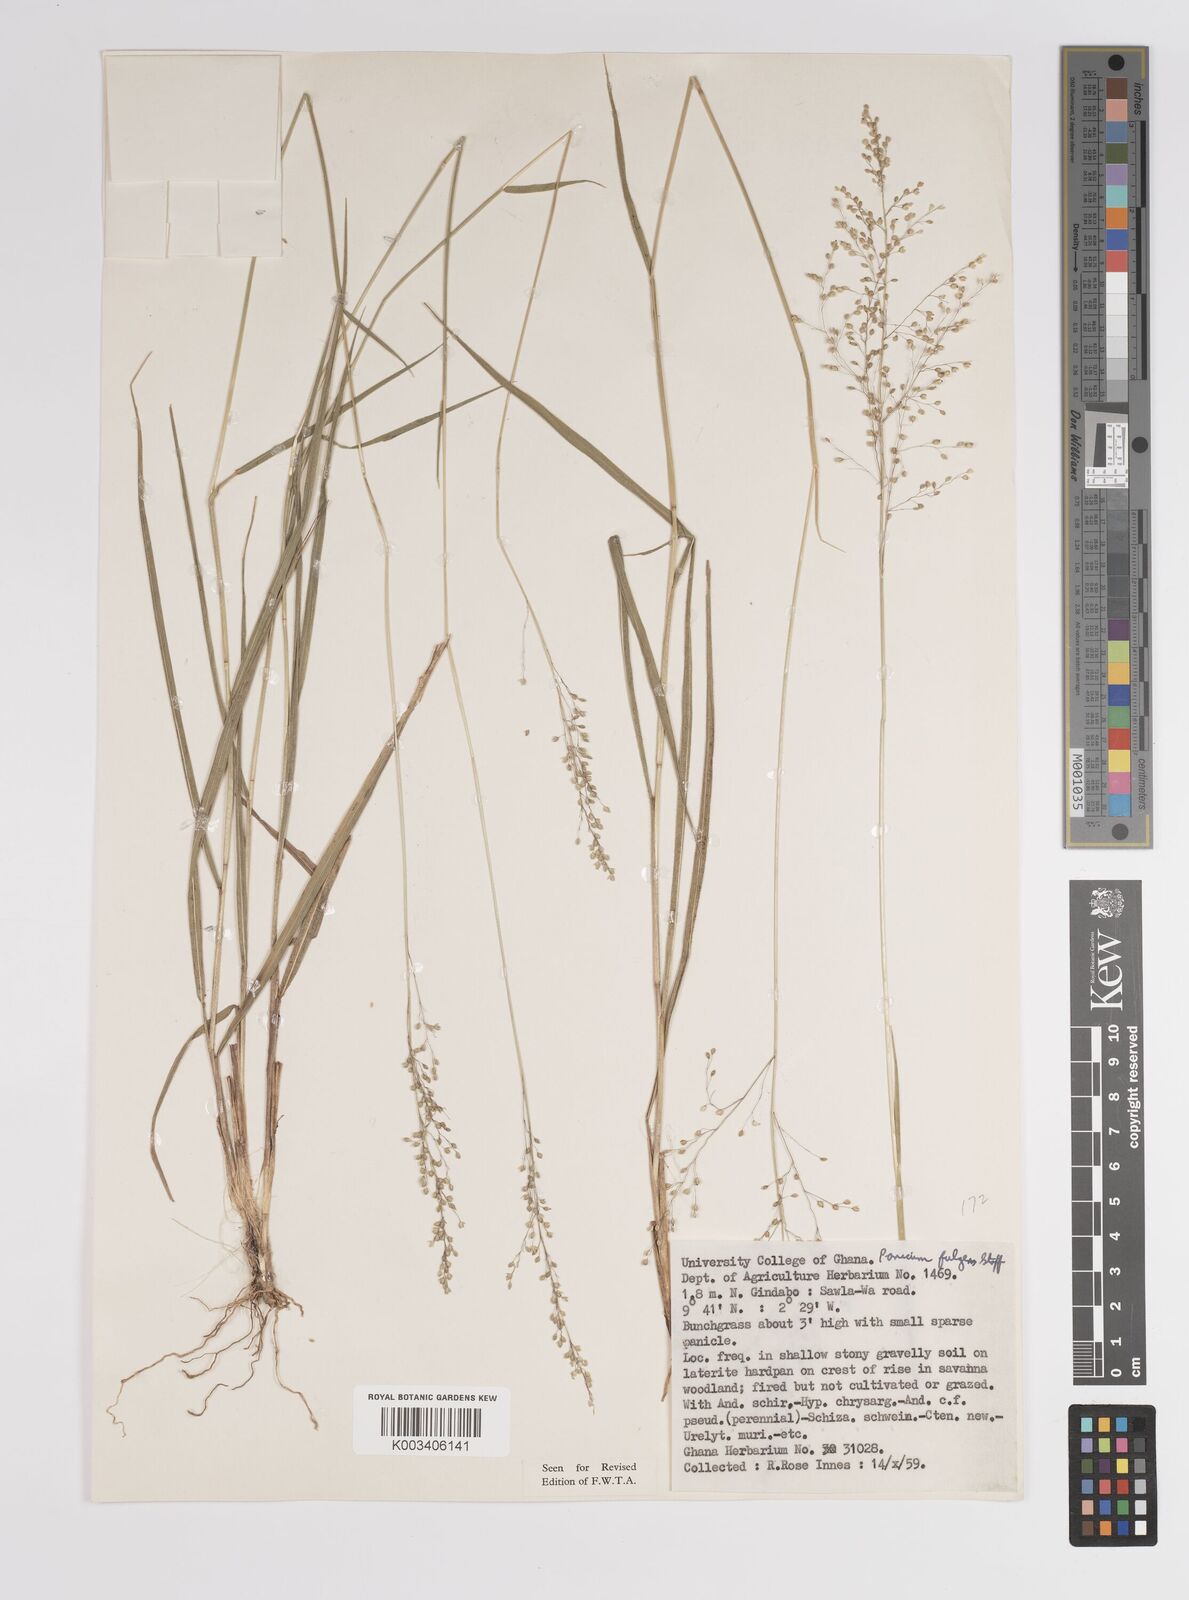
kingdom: Plantae
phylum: Tracheophyta
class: Liliopsida
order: Poales
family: Poaceae
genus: Trichanthecium
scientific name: Trichanthecium nervatum
